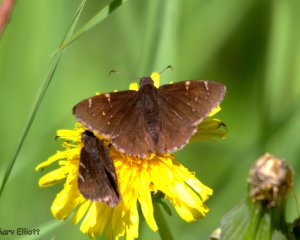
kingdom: Animalia
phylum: Arthropoda
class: Insecta
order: Lepidoptera
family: Hesperiidae
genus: Autochton
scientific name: Autochton
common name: Northern Cloudywing
